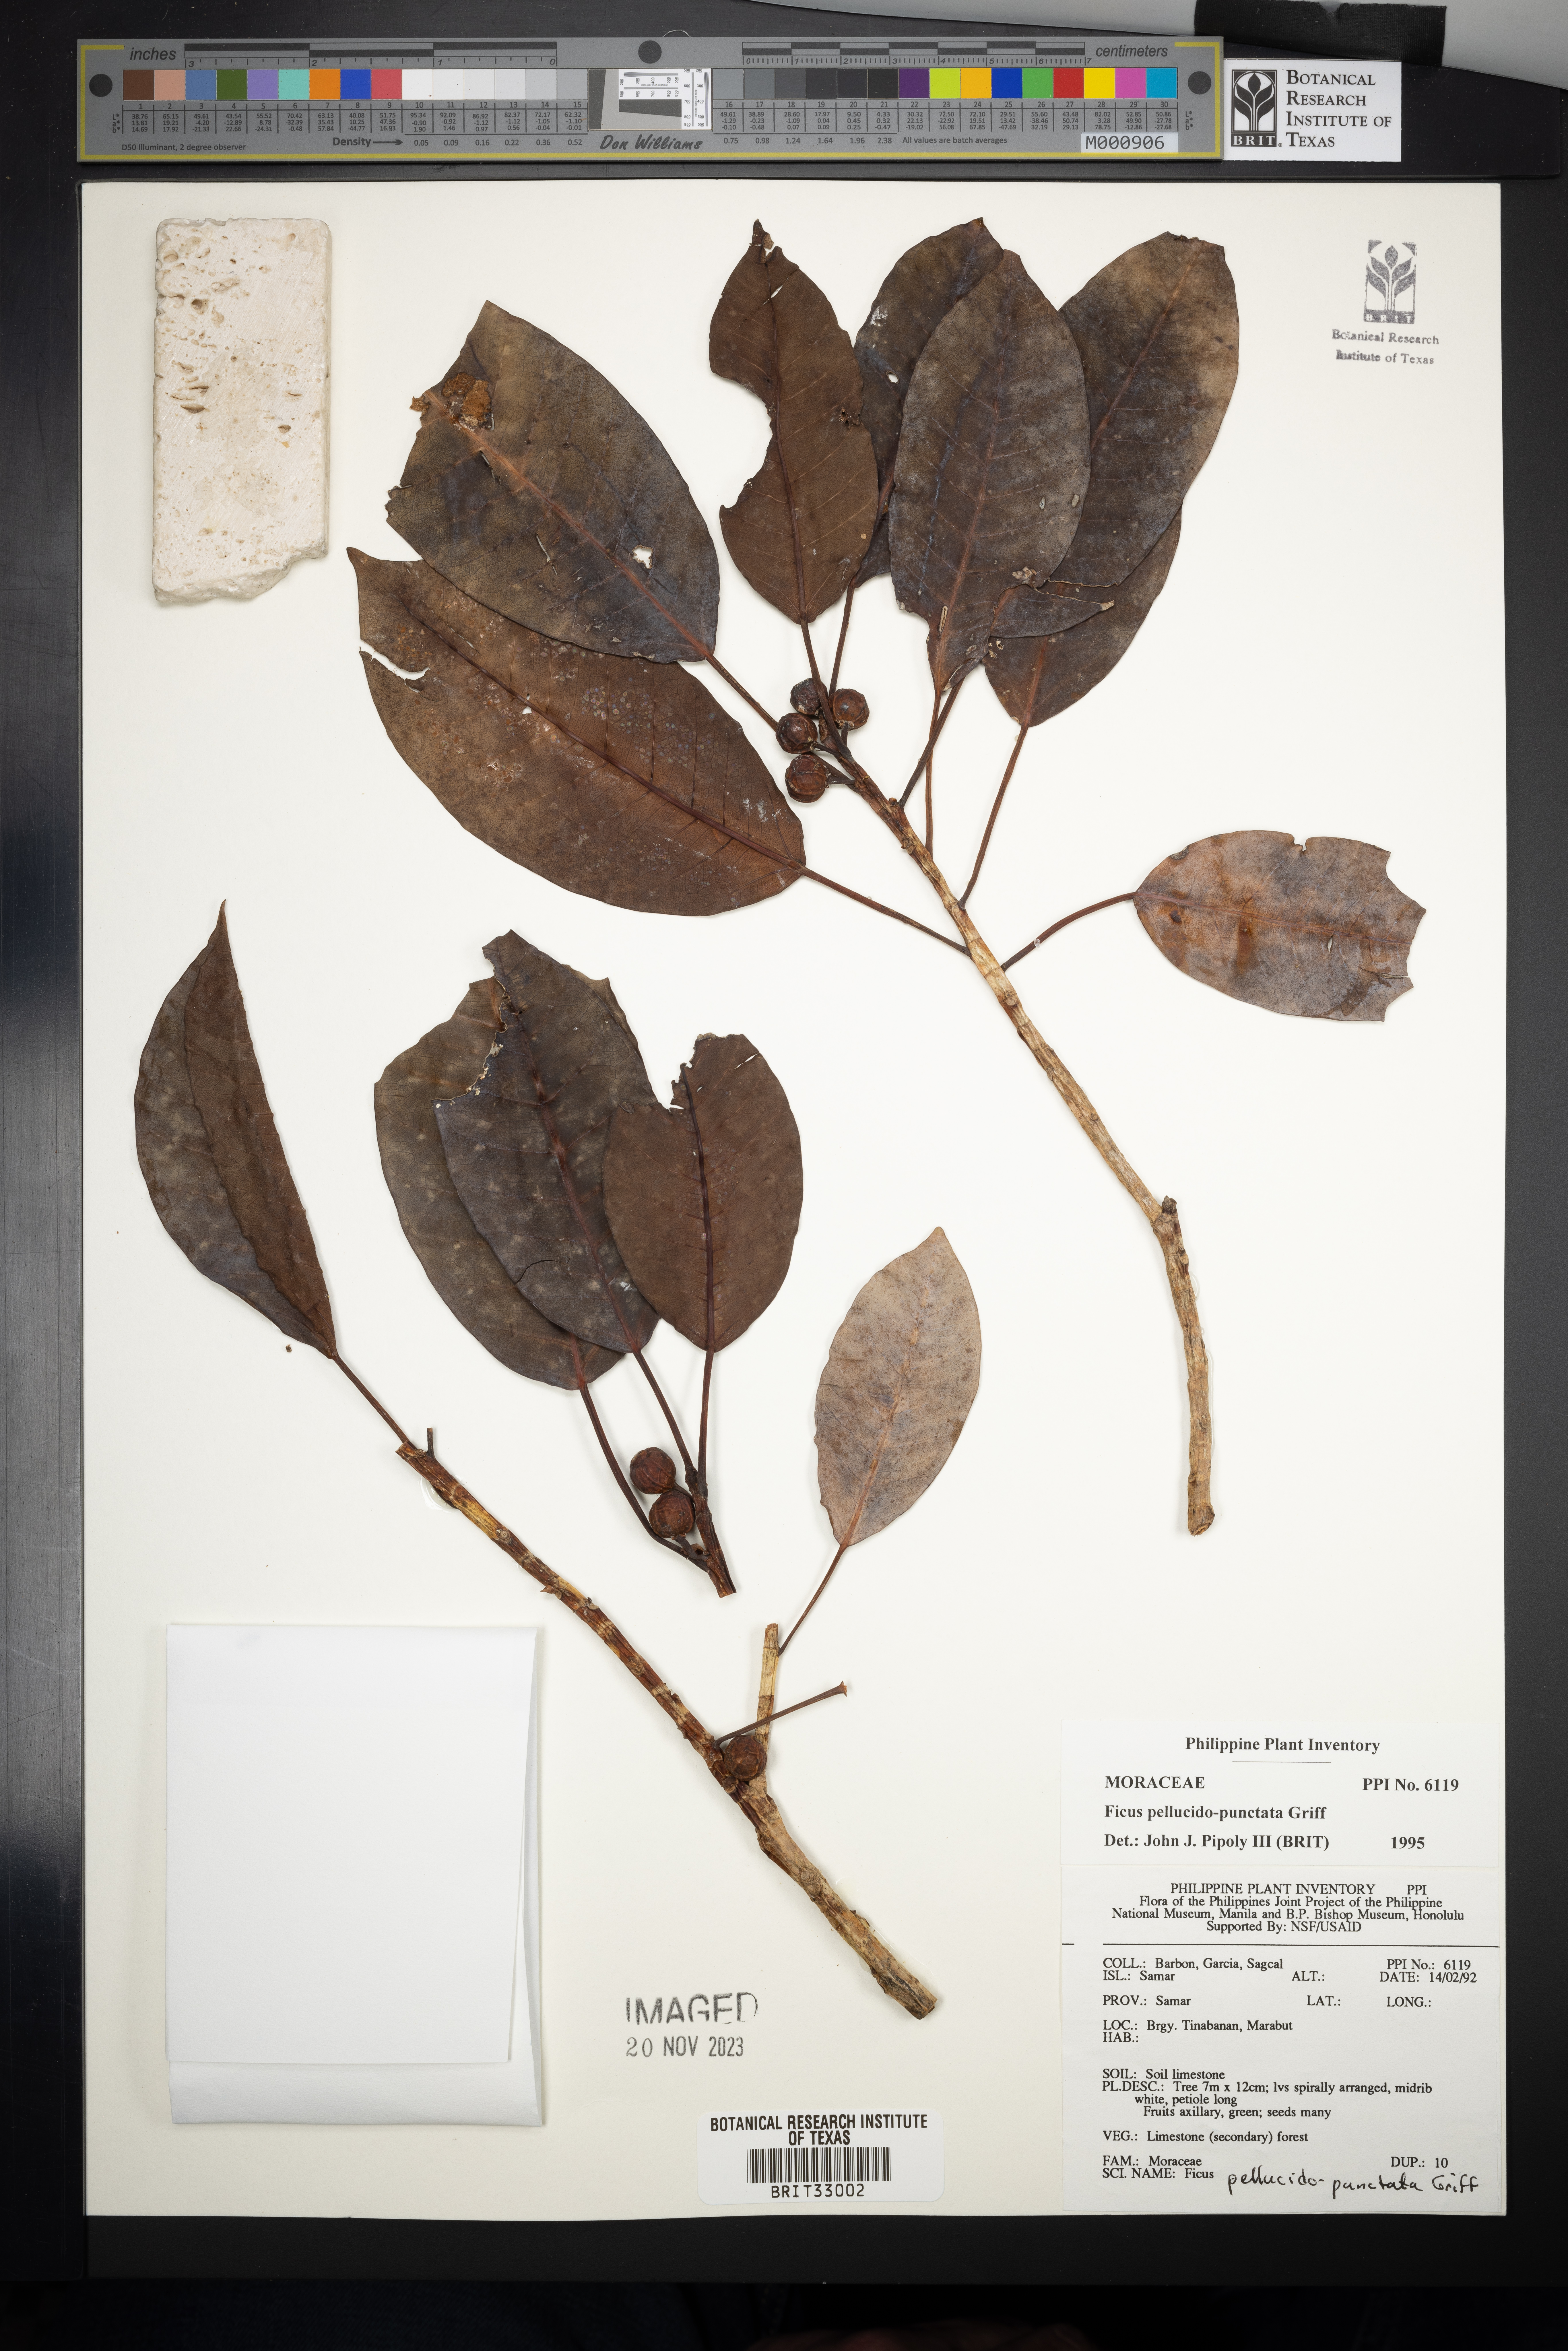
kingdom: Plantae
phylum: Tracheophyta
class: Magnoliopsida
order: Rosales
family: Moraceae
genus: Ficus
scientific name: Ficus pellucidopunctata
